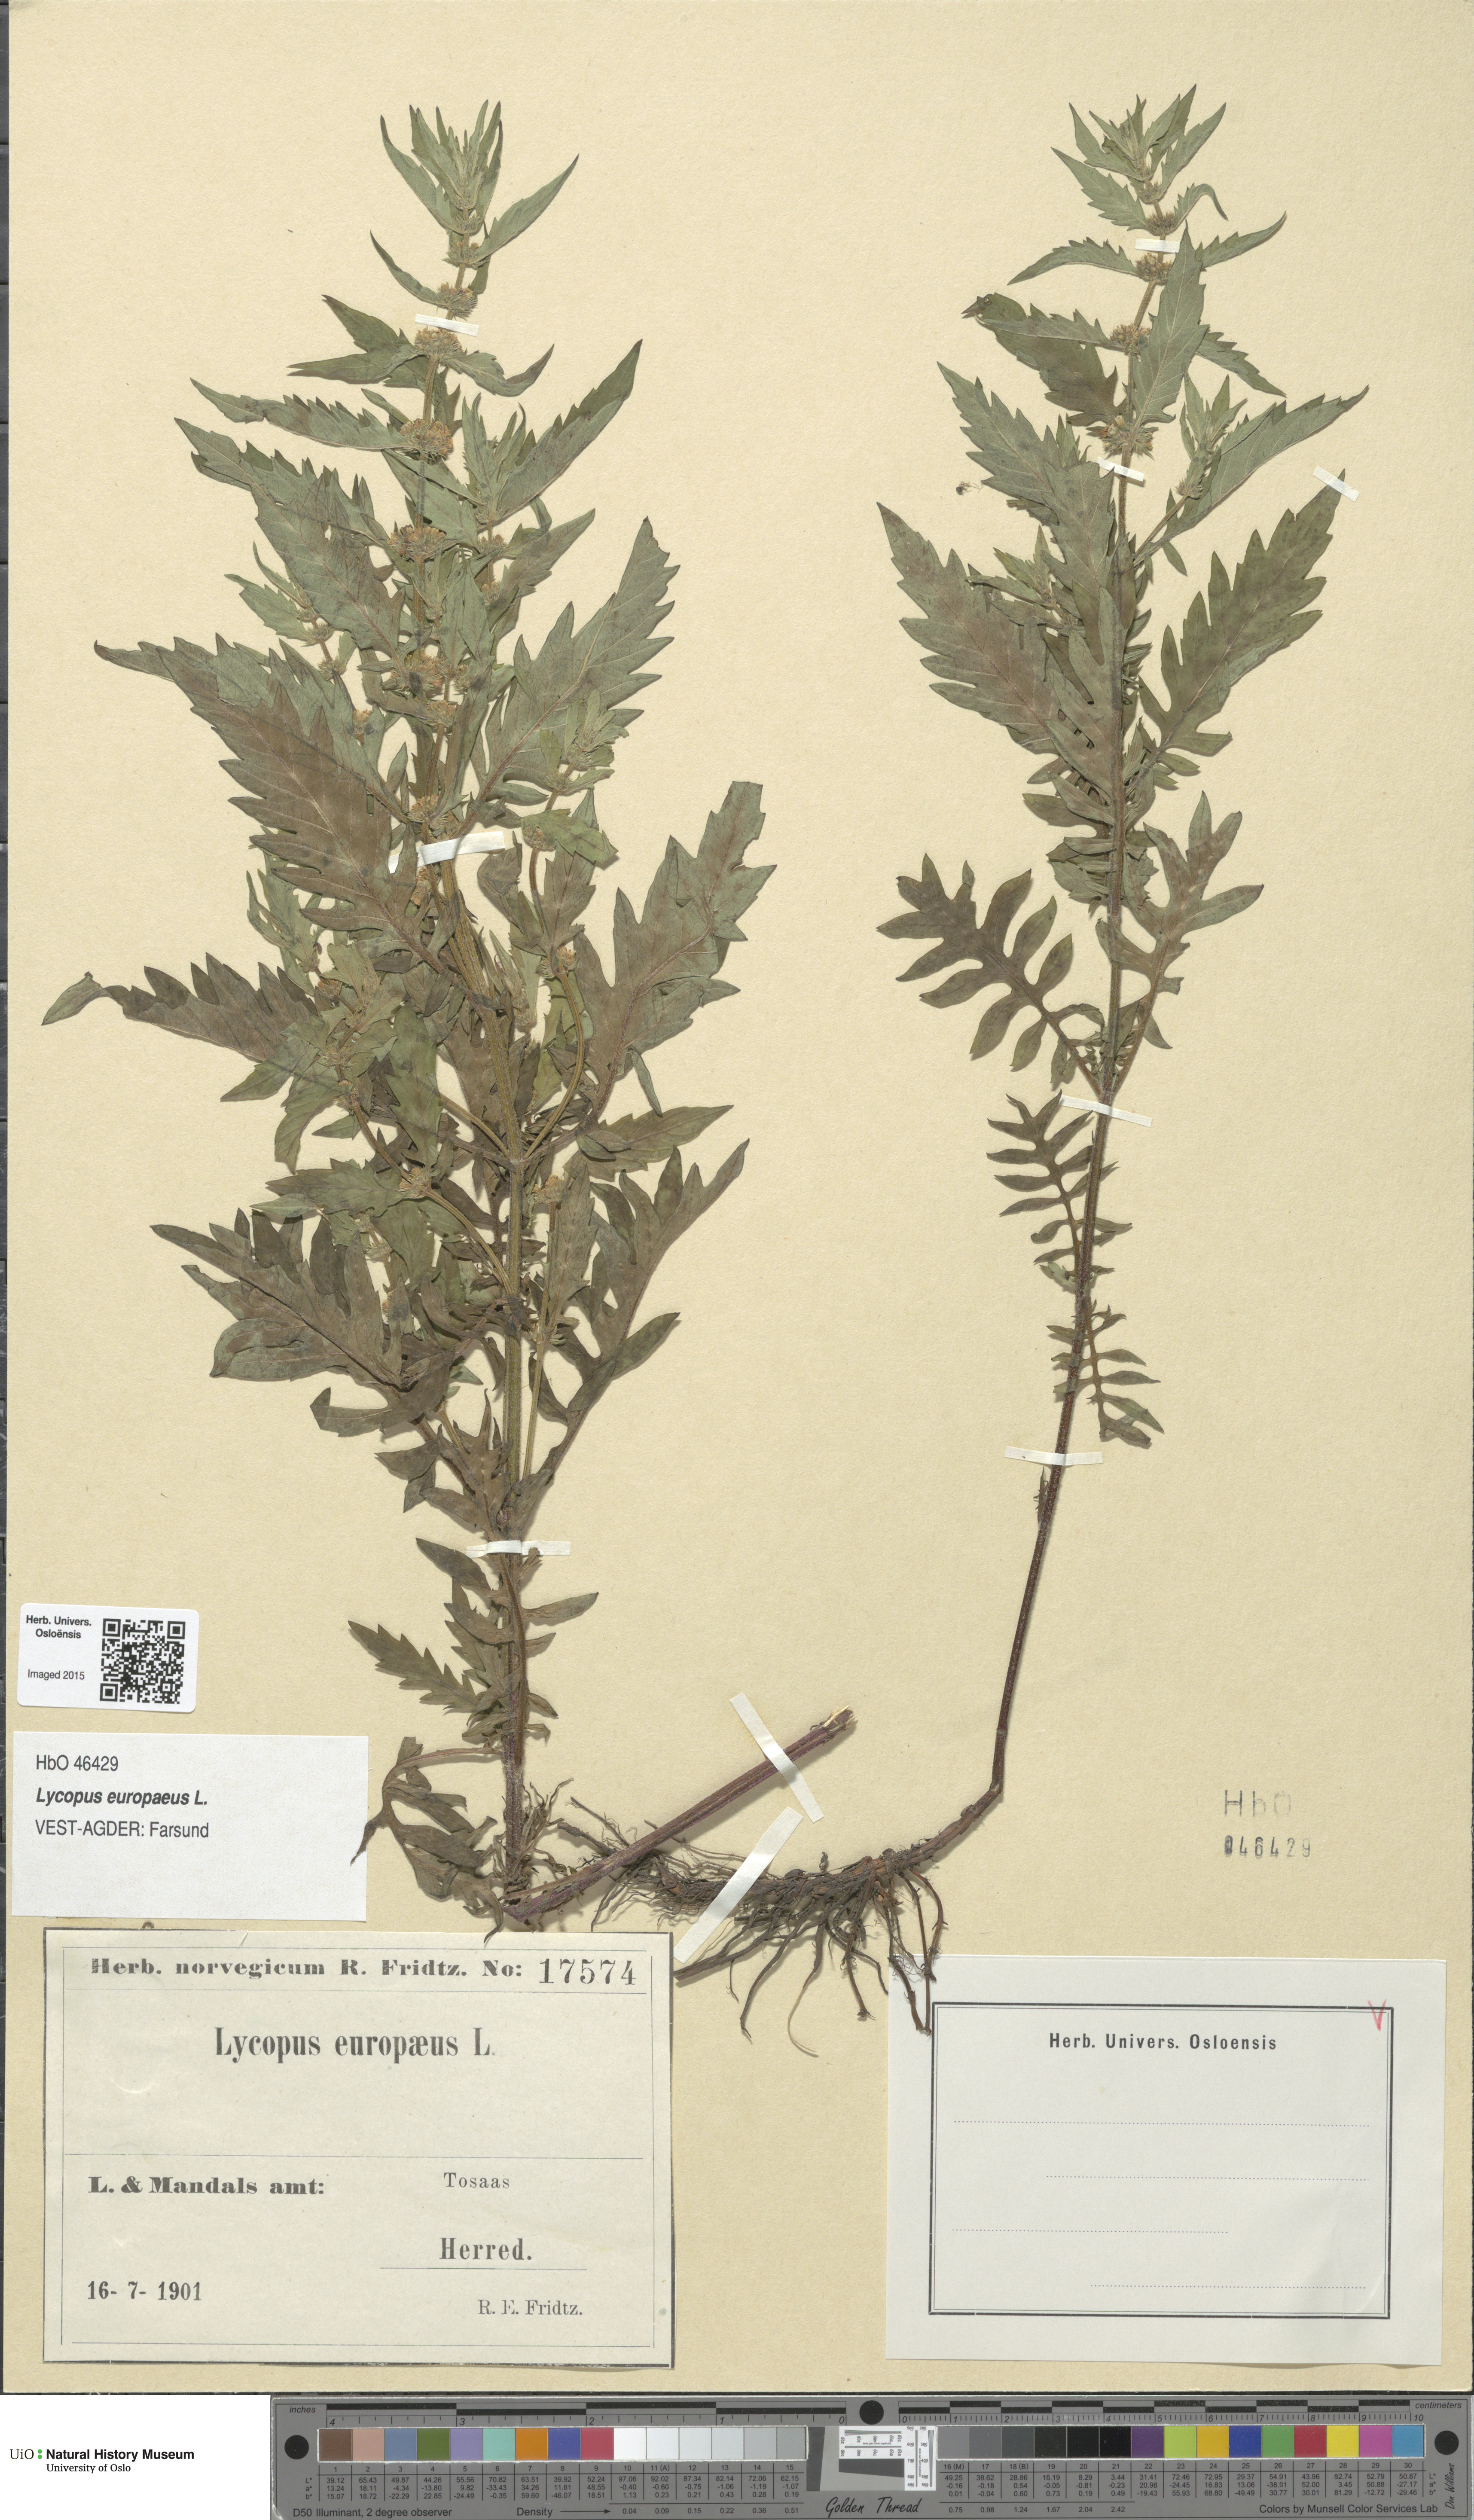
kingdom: Plantae
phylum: Tracheophyta
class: Magnoliopsida
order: Lamiales
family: Lamiaceae
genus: Lycopus
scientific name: Lycopus europaeus
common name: European bugleweed
